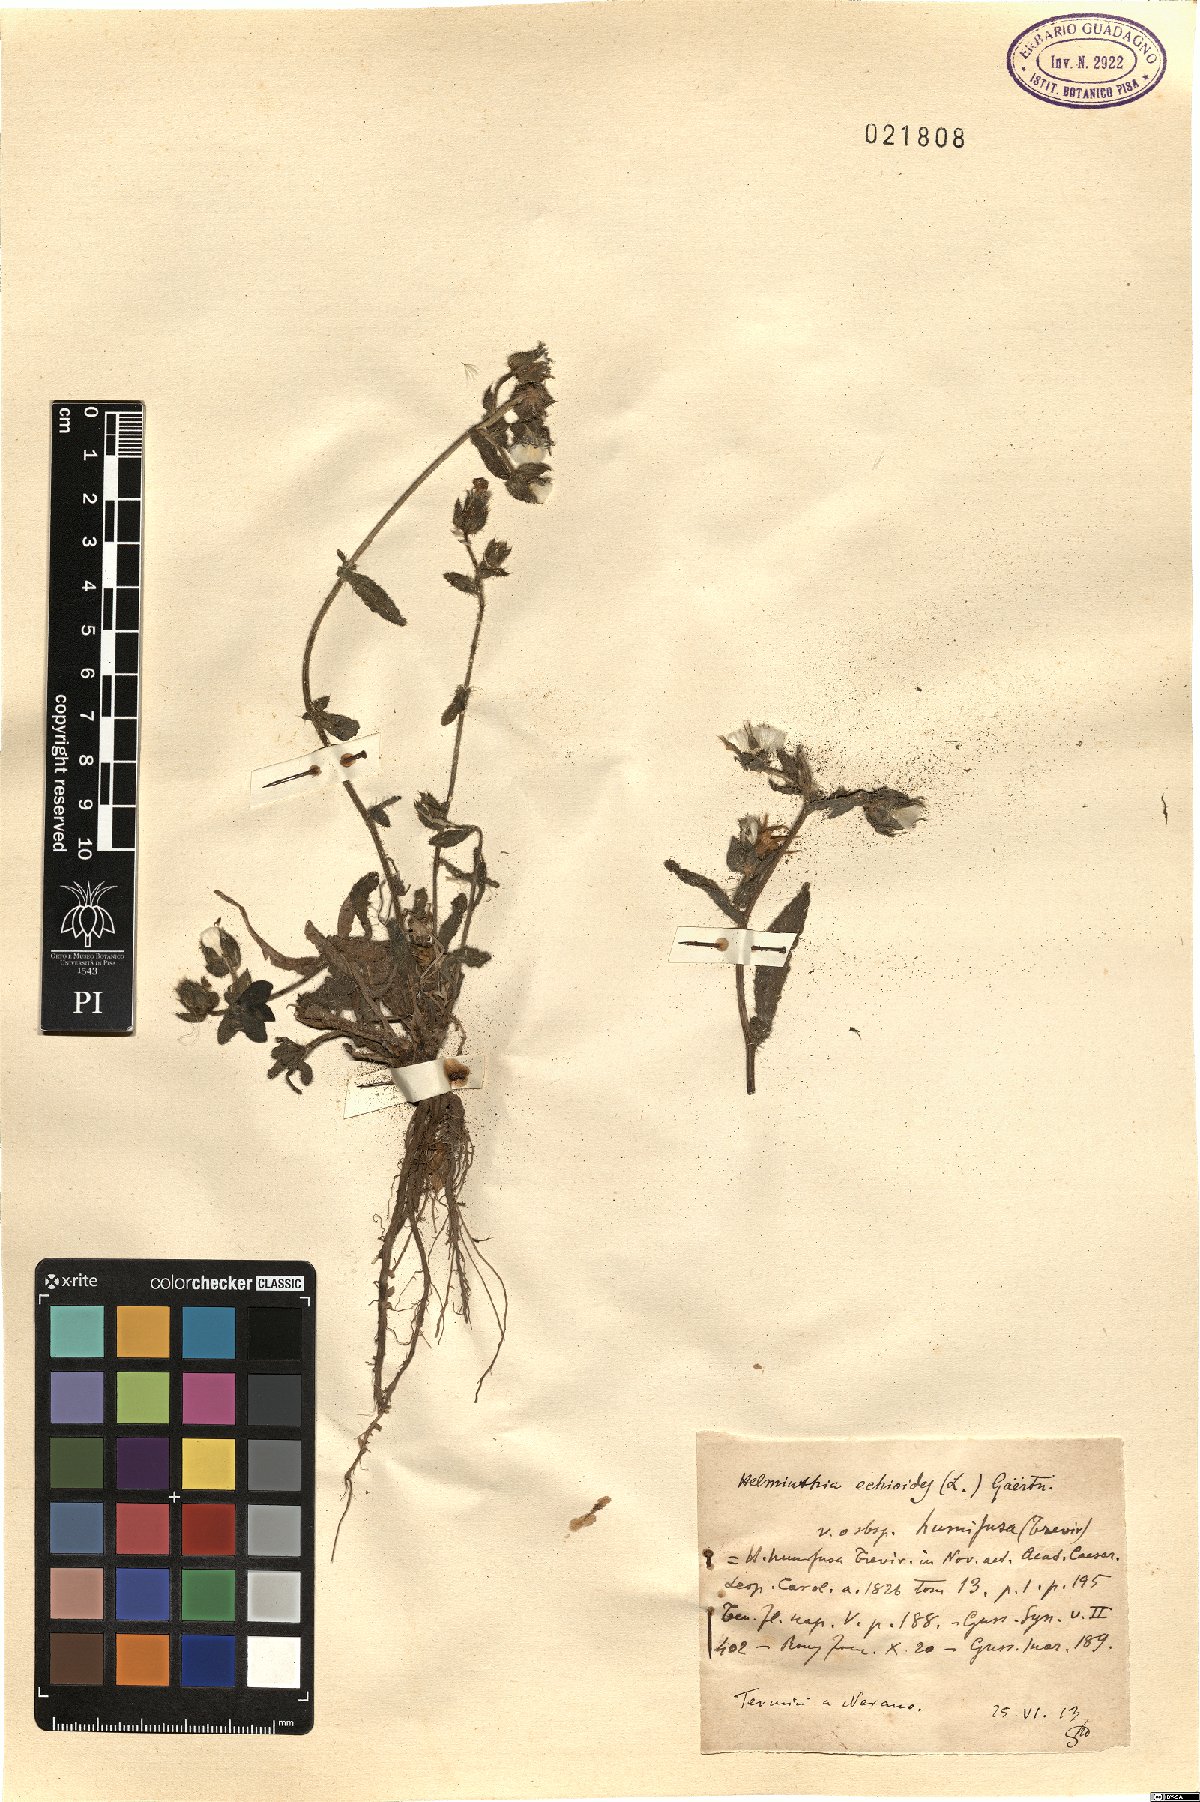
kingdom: Plantae
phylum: Tracheophyta
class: Magnoliopsida
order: Asterales
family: Asteraceae
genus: Helminthotheca
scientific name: Helminthotheca echioides
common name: Ox-tongue
